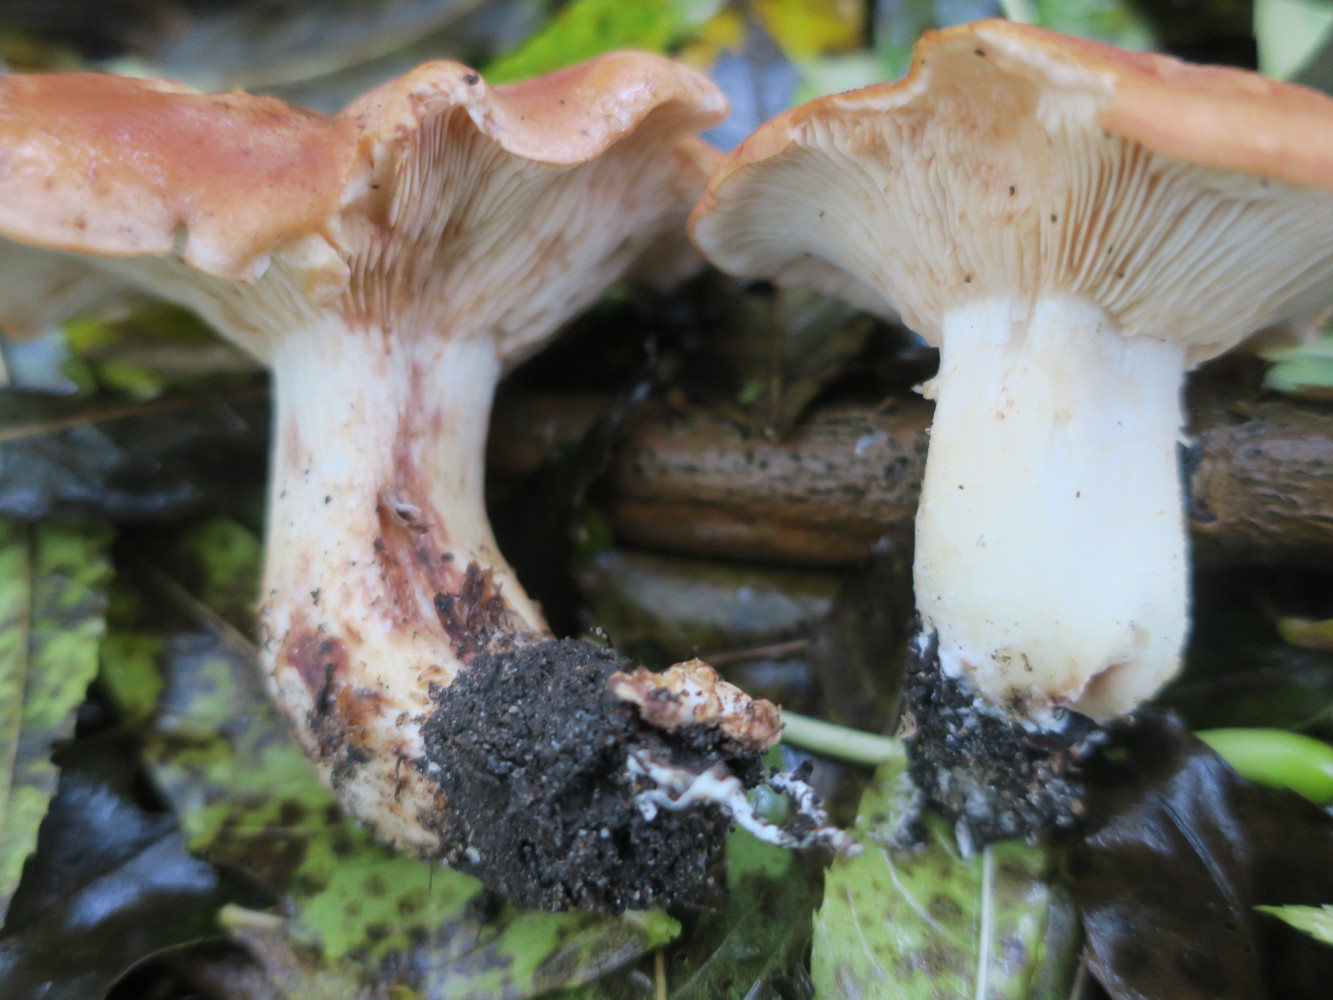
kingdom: Fungi
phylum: Basidiomycota
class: Agaricomycetes
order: Agaricales
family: Entolomataceae
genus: Clitopilus
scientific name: Clitopilus geminus
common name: kødfarvet troldhat
